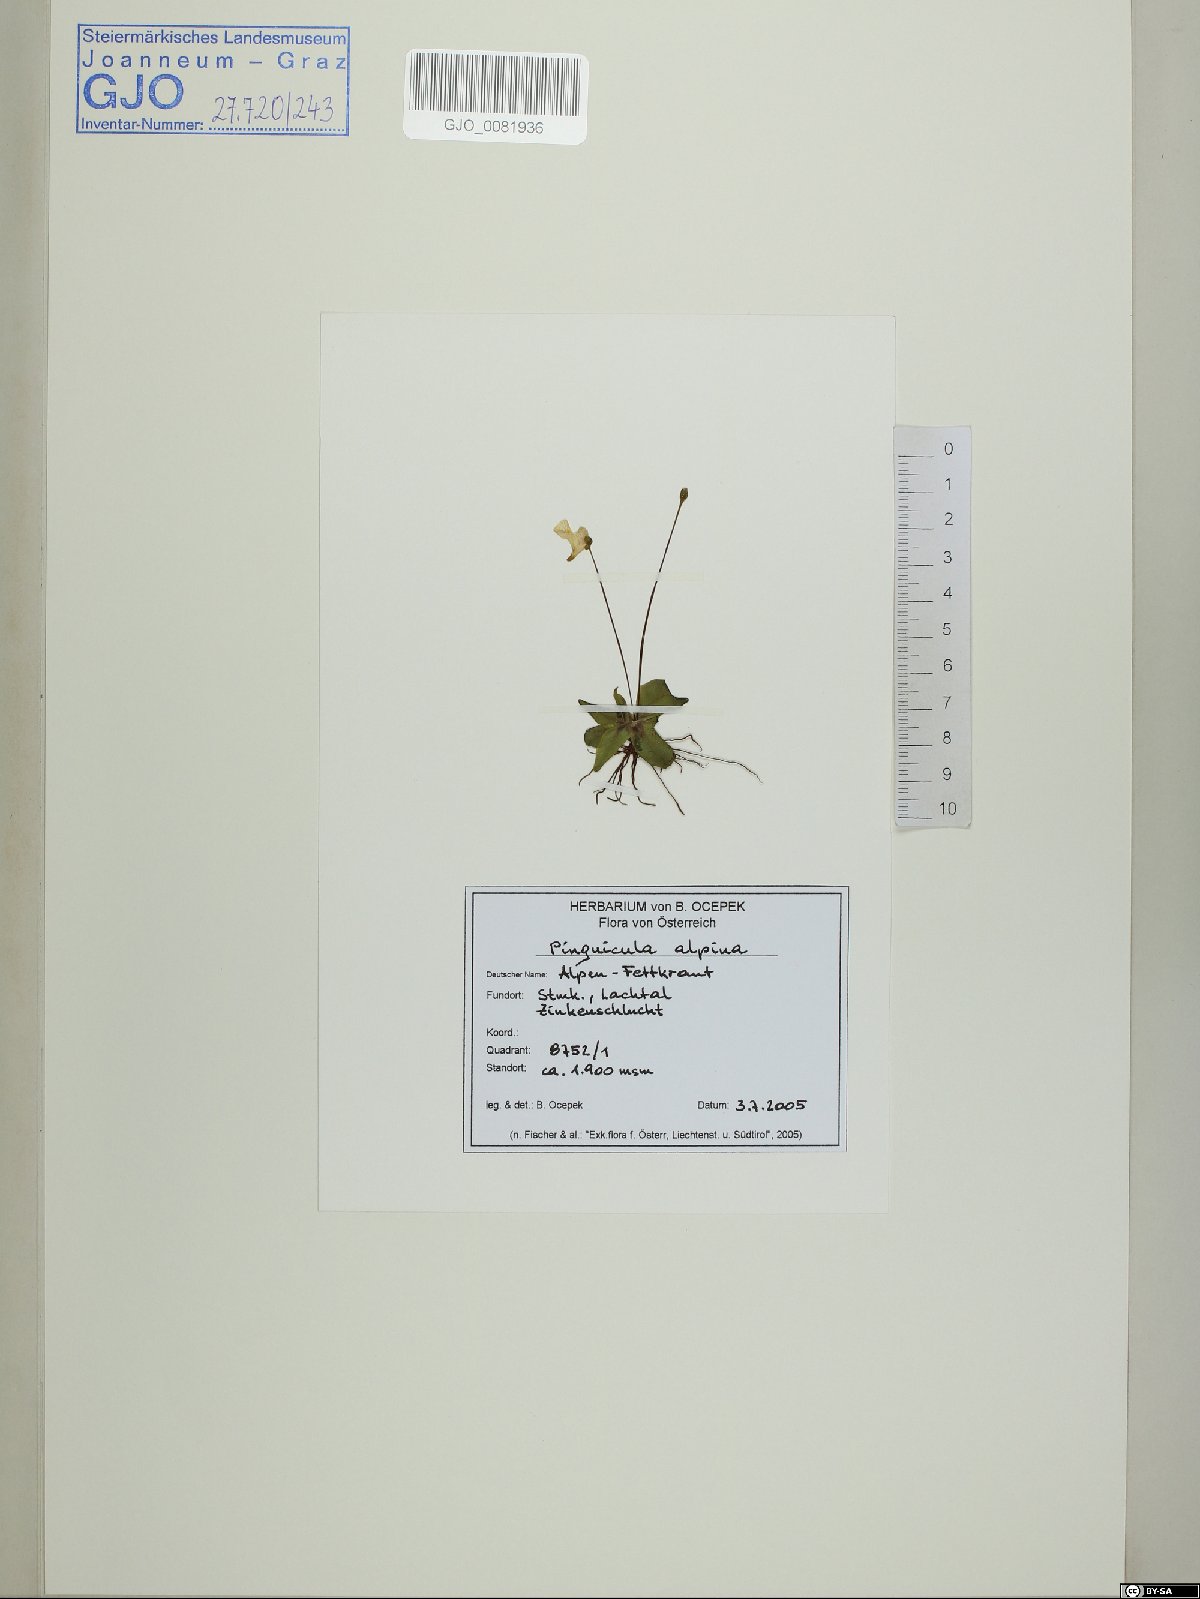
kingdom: Plantae
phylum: Tracheophyta
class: Magnoliopsida
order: Lamiales
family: Lentibulariaceae
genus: Pinguicula
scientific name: Pinguicula alpina
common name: Alpine butterwort
